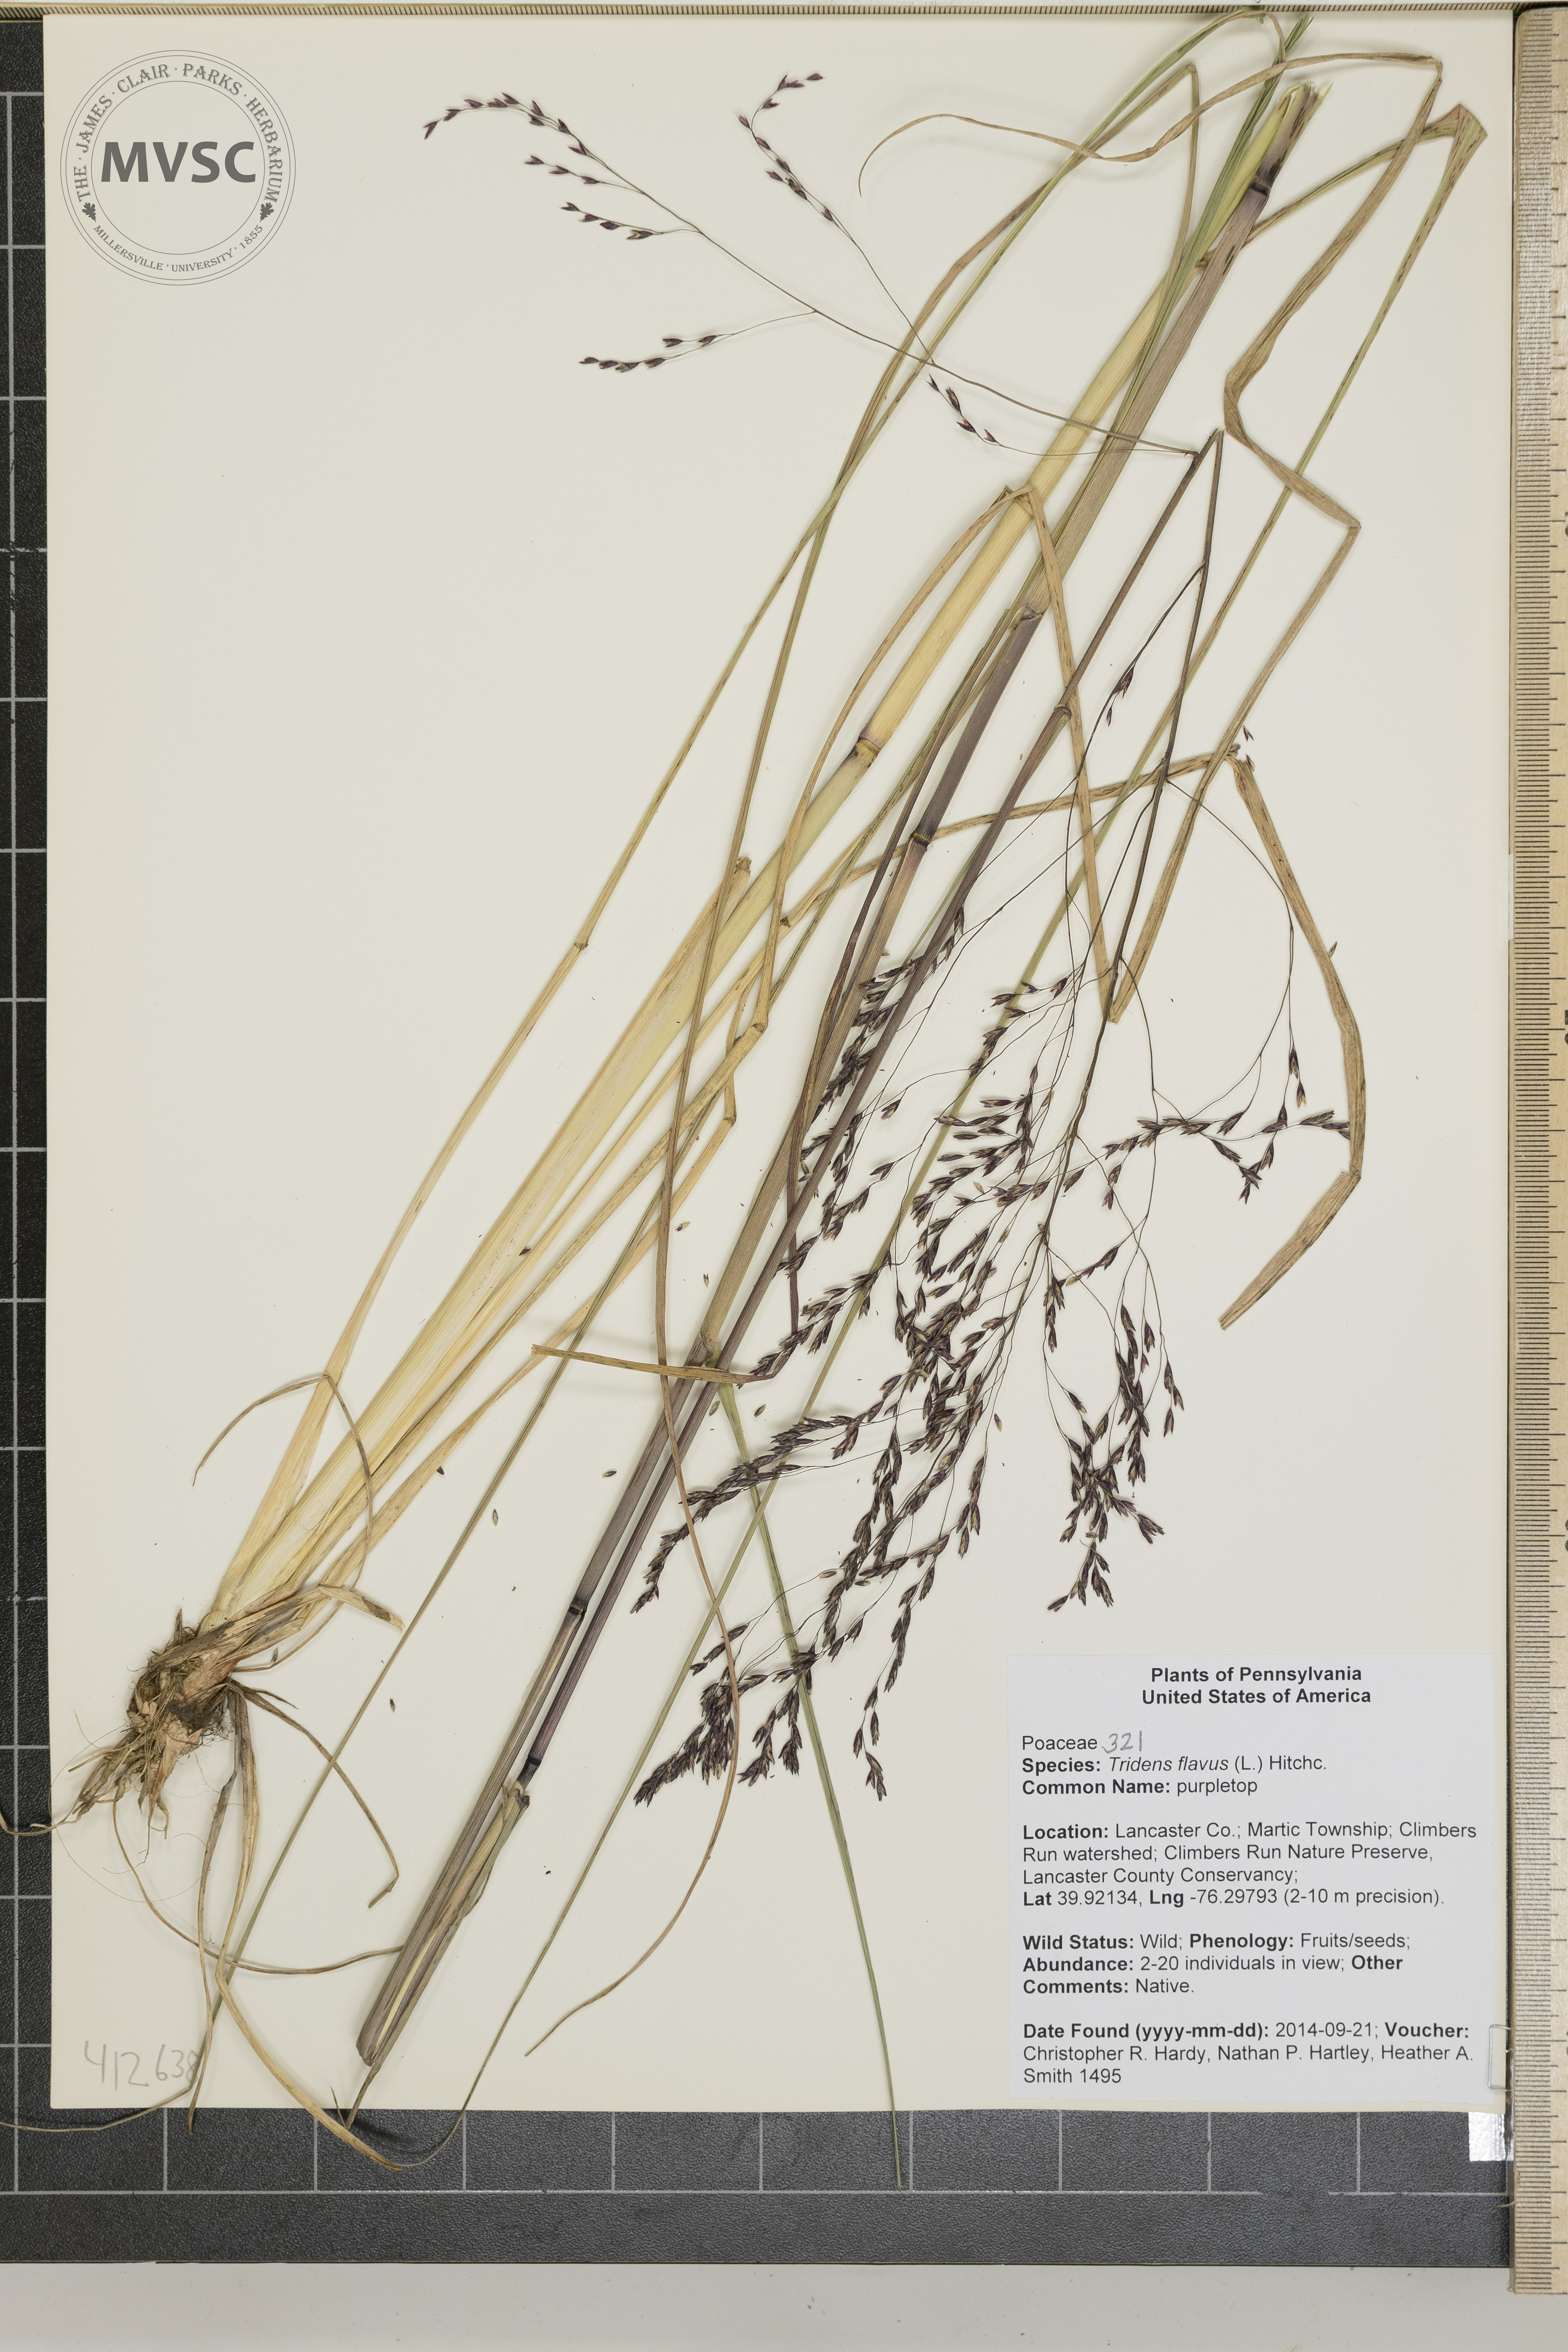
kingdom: Plantae
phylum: Tracheophyta
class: Liliopsida
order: Poales
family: Poaceae
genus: Tridens
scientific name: Tridens flavus
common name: purpletop
